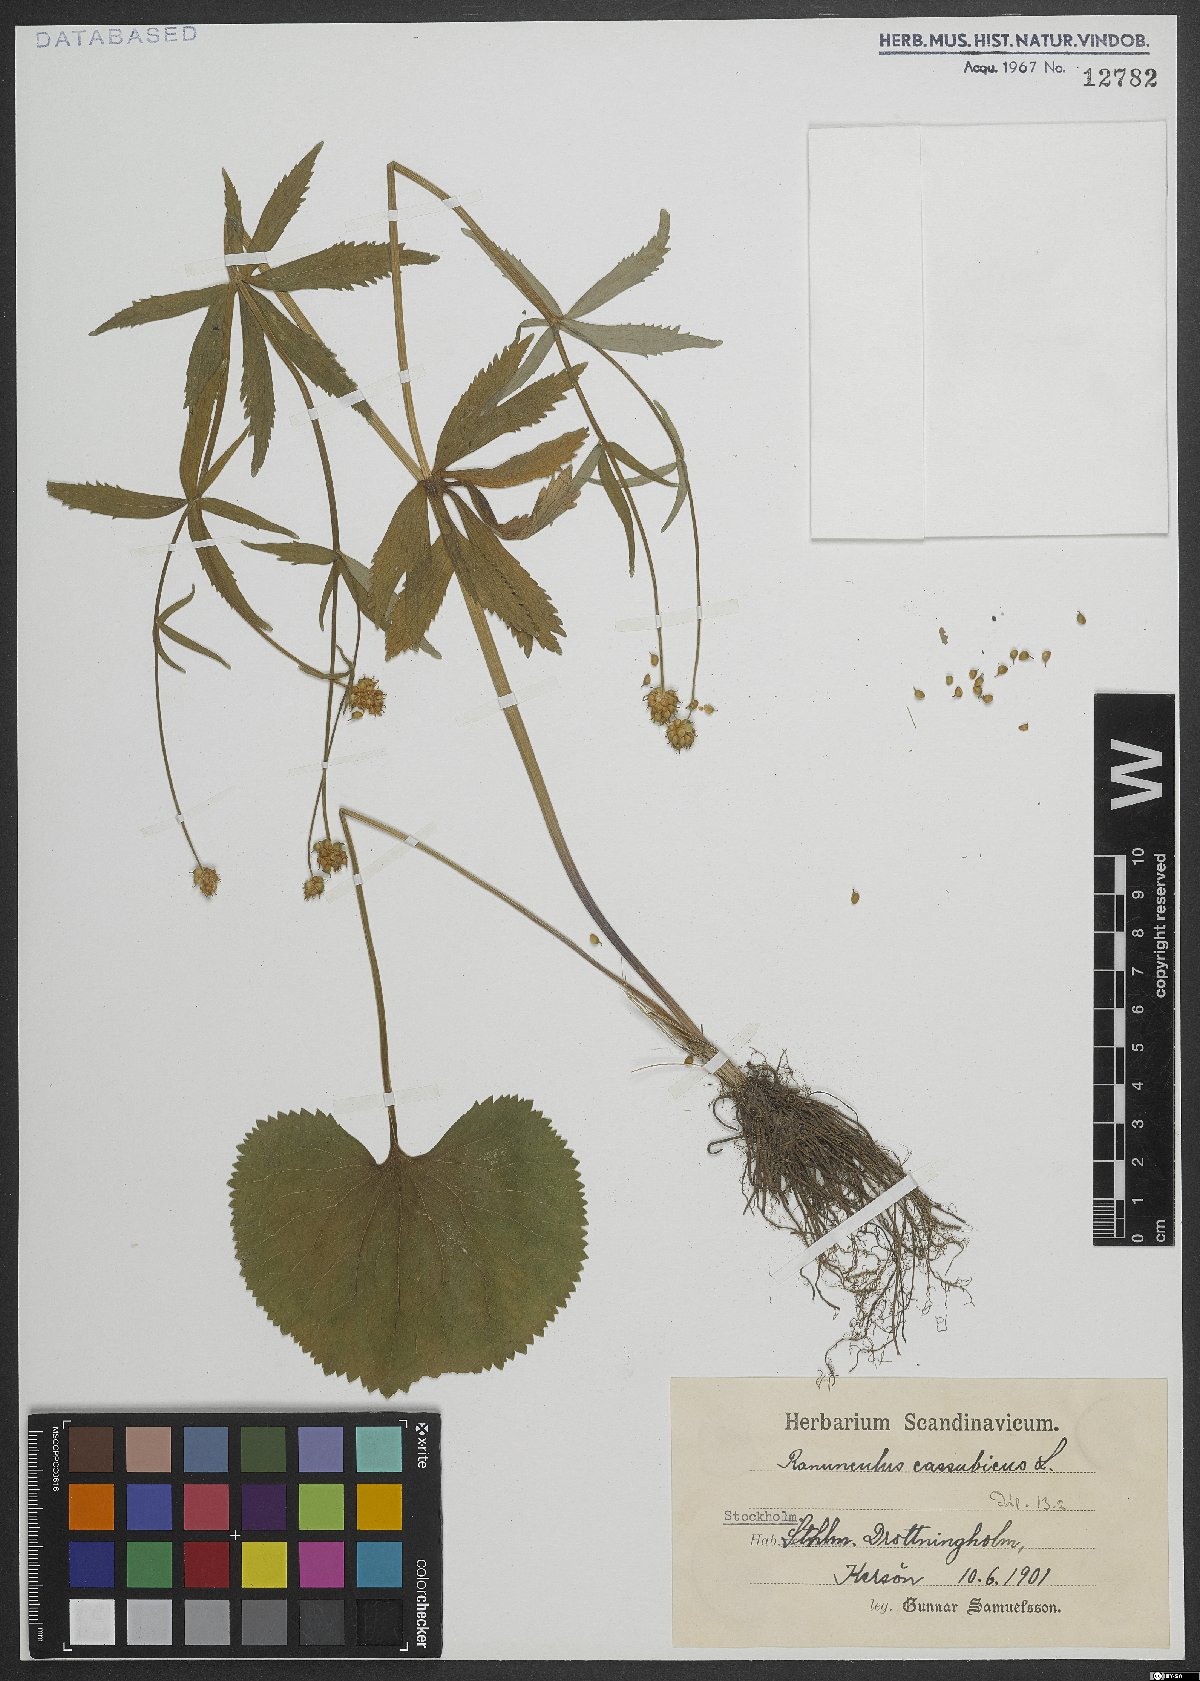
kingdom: Plantae
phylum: Tracheophyta
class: Magnoliopsida
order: Ranunculales
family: Ranunculaceae
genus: Ranunculus
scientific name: Ranunculus cassubicus
